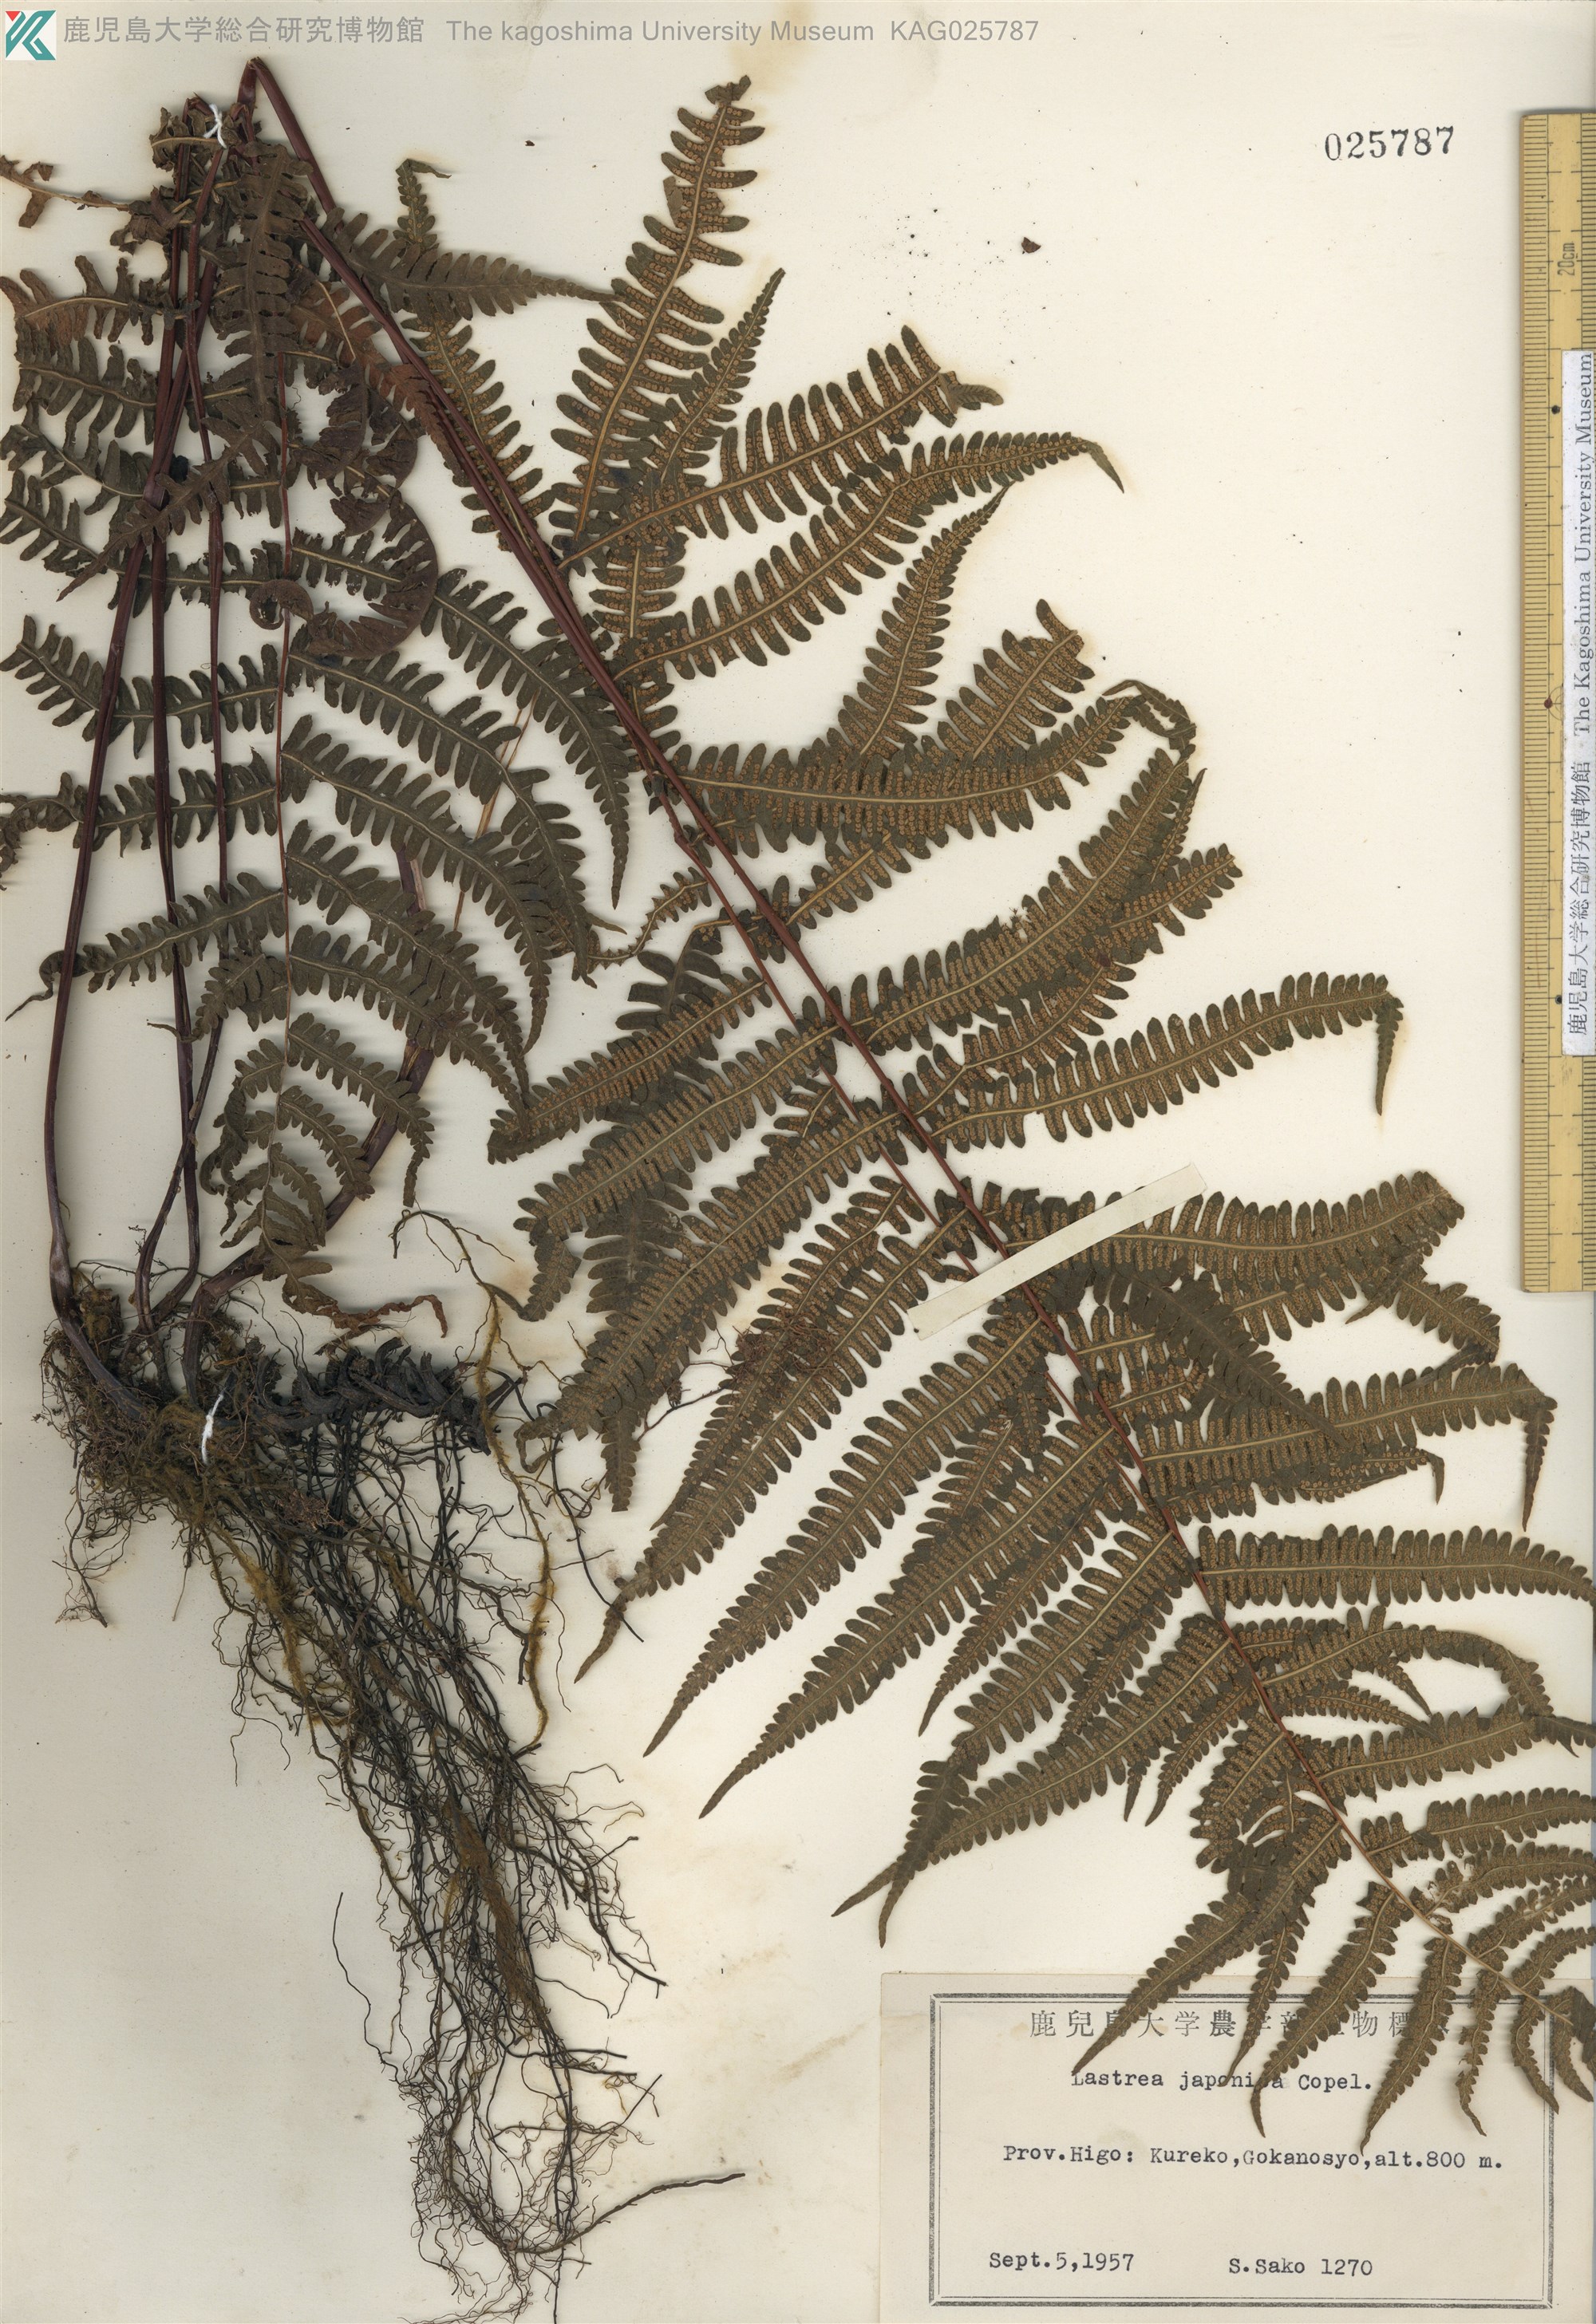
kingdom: Plantae
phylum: Tracheophyta
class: Polypodiopsida
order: Polypodiales
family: Thelypteridaceae
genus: Coryphopteris
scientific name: Coryphopteris japonica
